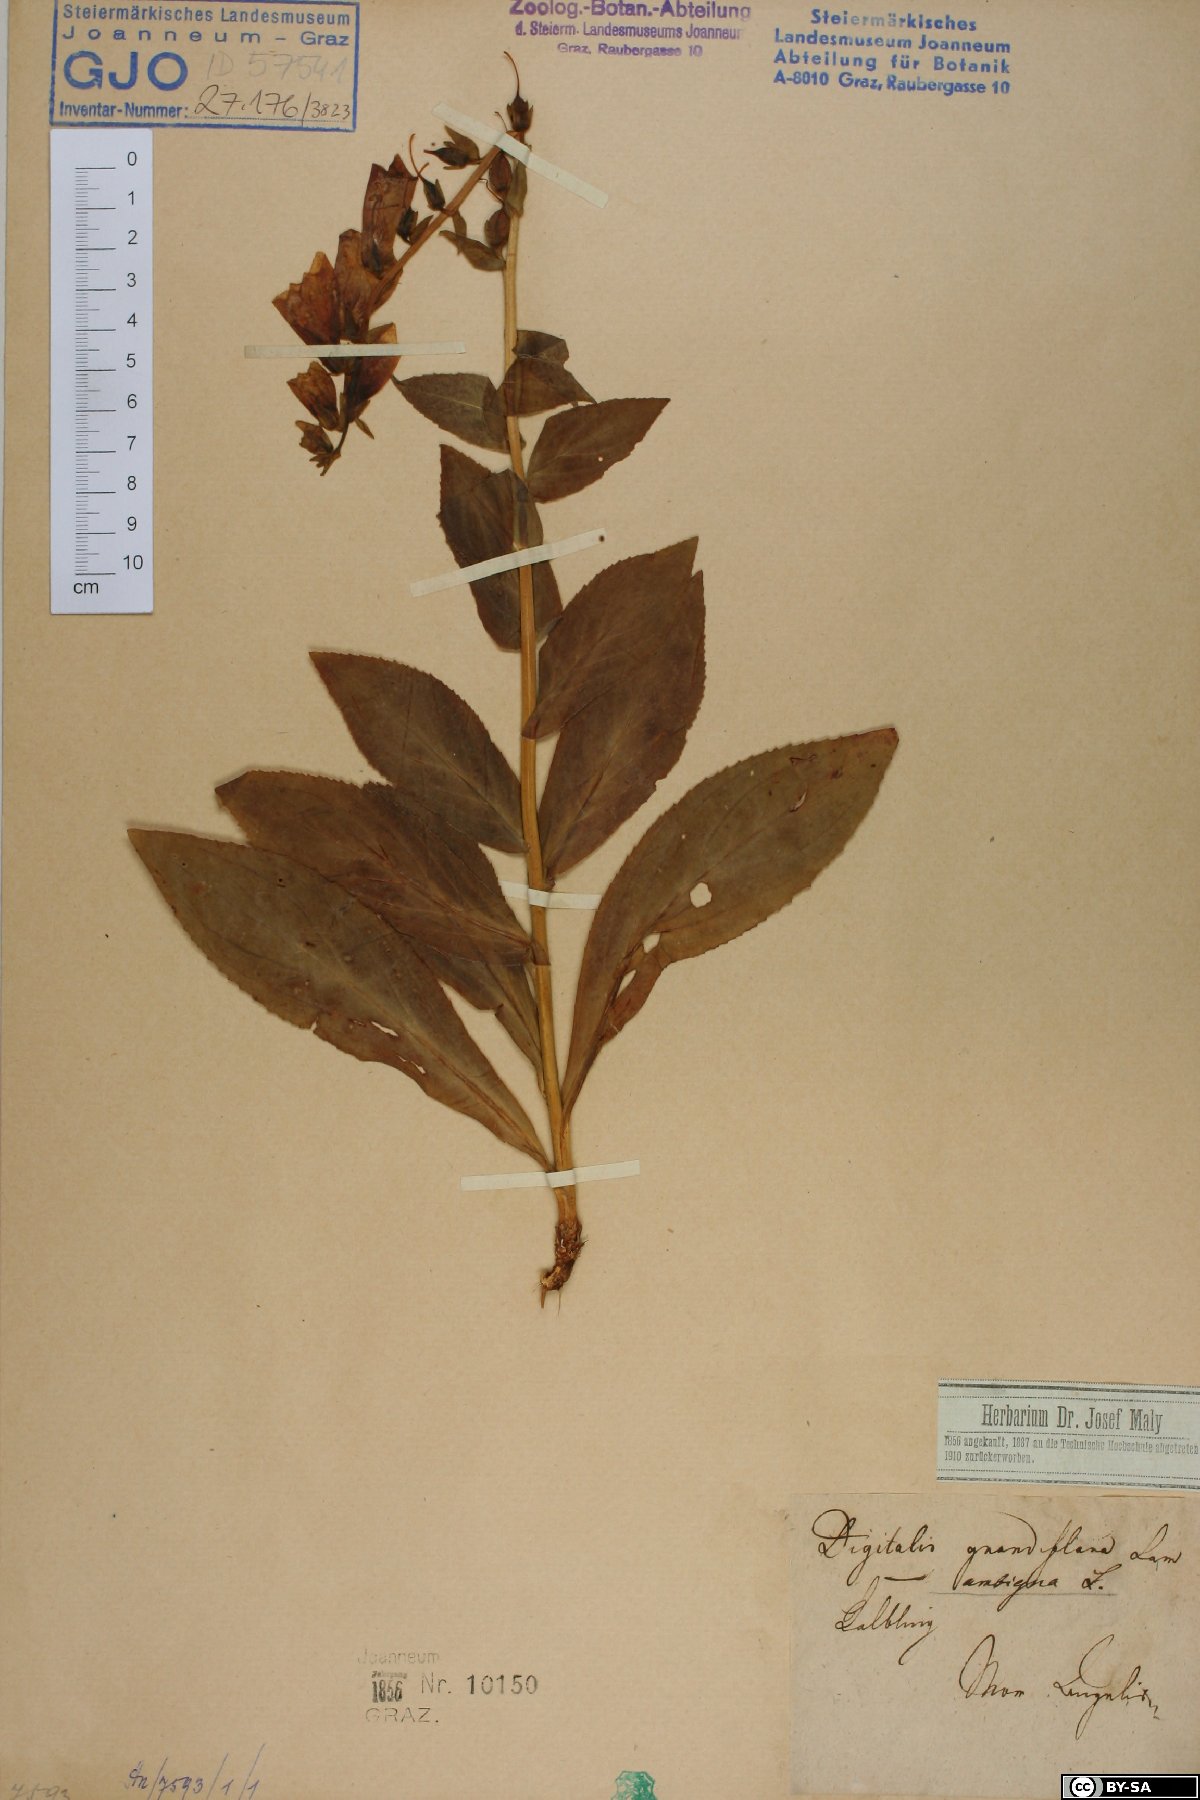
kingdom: Plantae
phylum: Tracheophyta
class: Magnoliopsida
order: Lamiales
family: Plantaginaceae
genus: Digitalis
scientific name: Digitalis grandiflora
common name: Yellow foxglove
